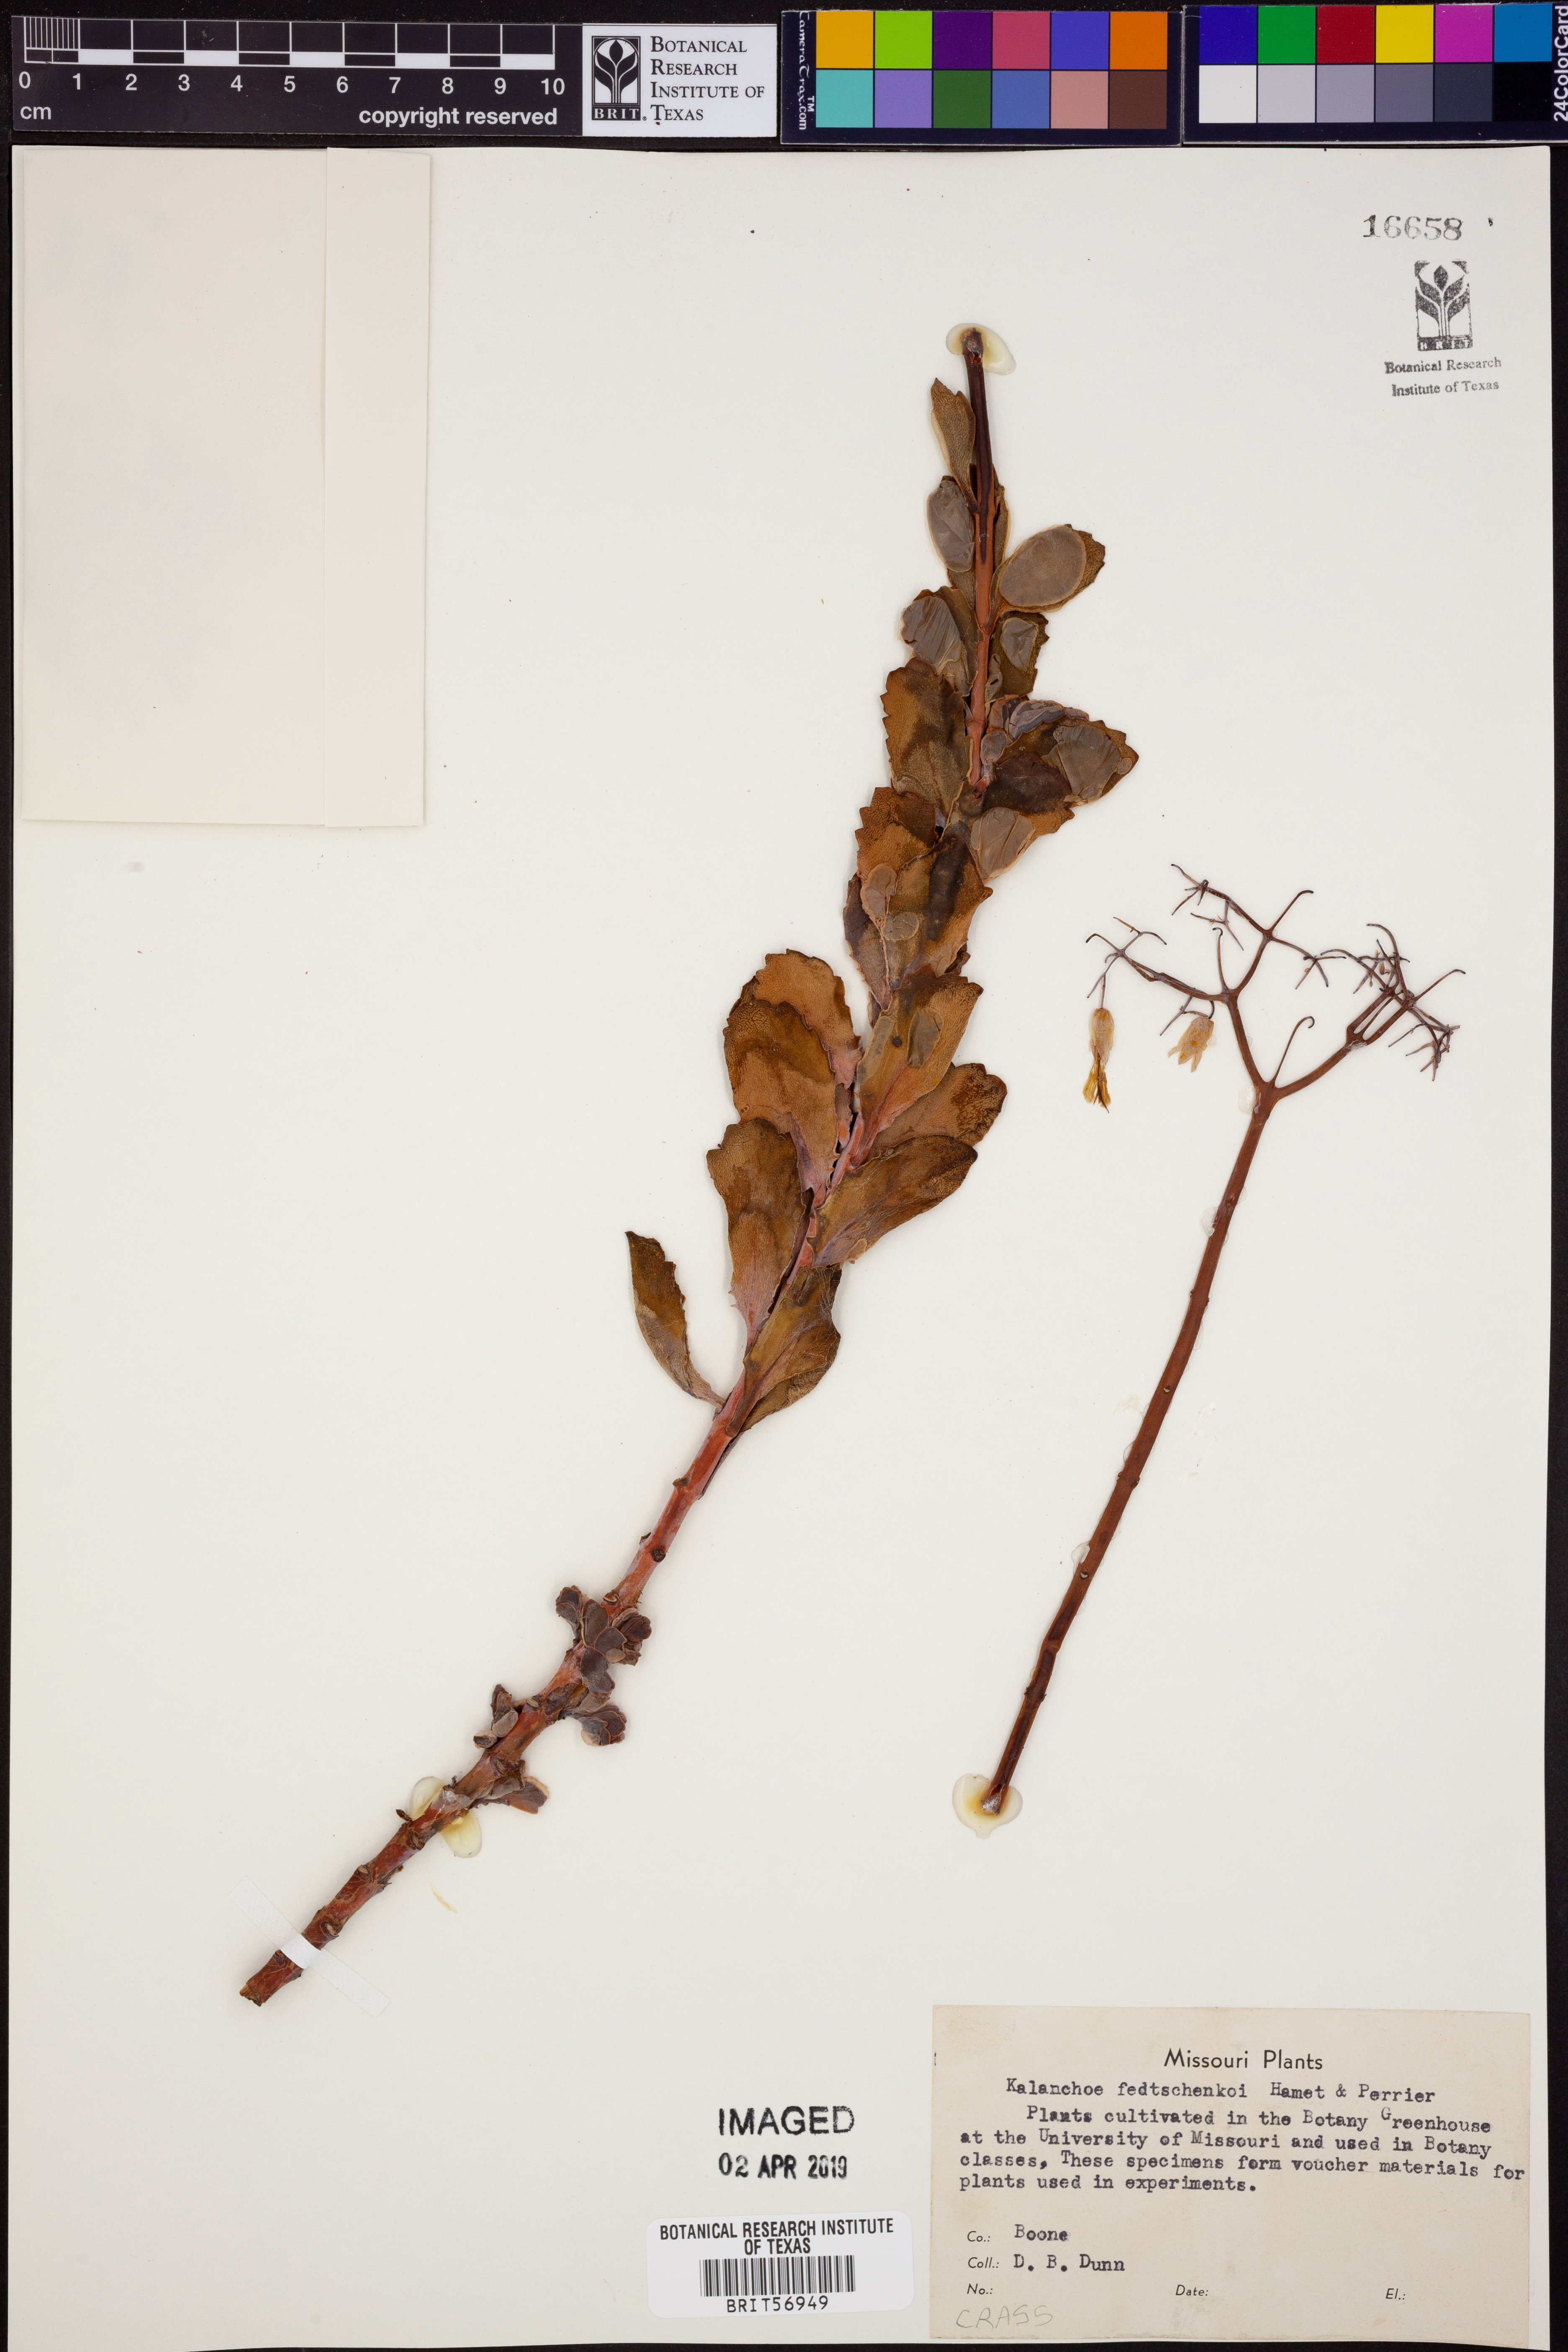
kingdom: Plantae
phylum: Tracheophyta
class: Magnoliopsida
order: Saxifragales
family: Crassulaceae
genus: Kalanchoe
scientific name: Kalanchoe fedtschenkoi
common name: Lavender scallops
